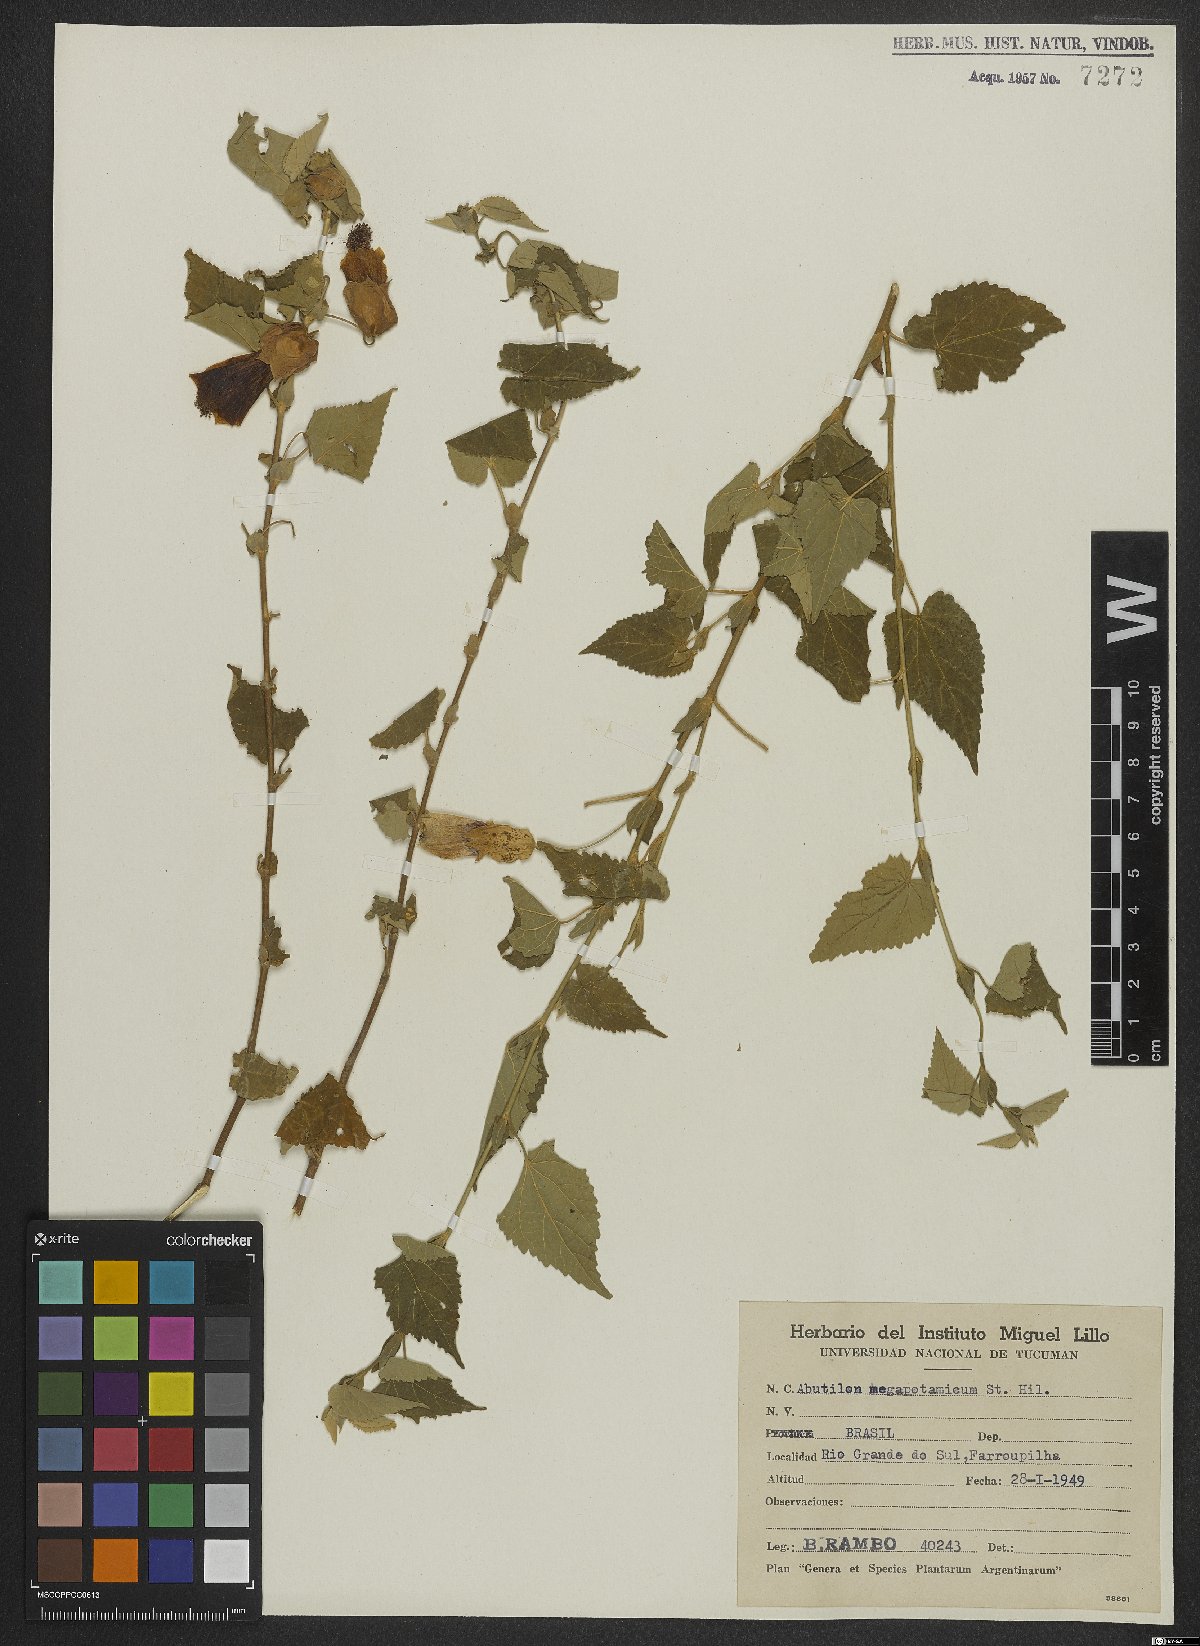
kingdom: Plantae
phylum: Tracheophyta
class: Magnoliopsida
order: Malvales
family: Malvaceae
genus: Callianthe
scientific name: Callianthe megapotamica
